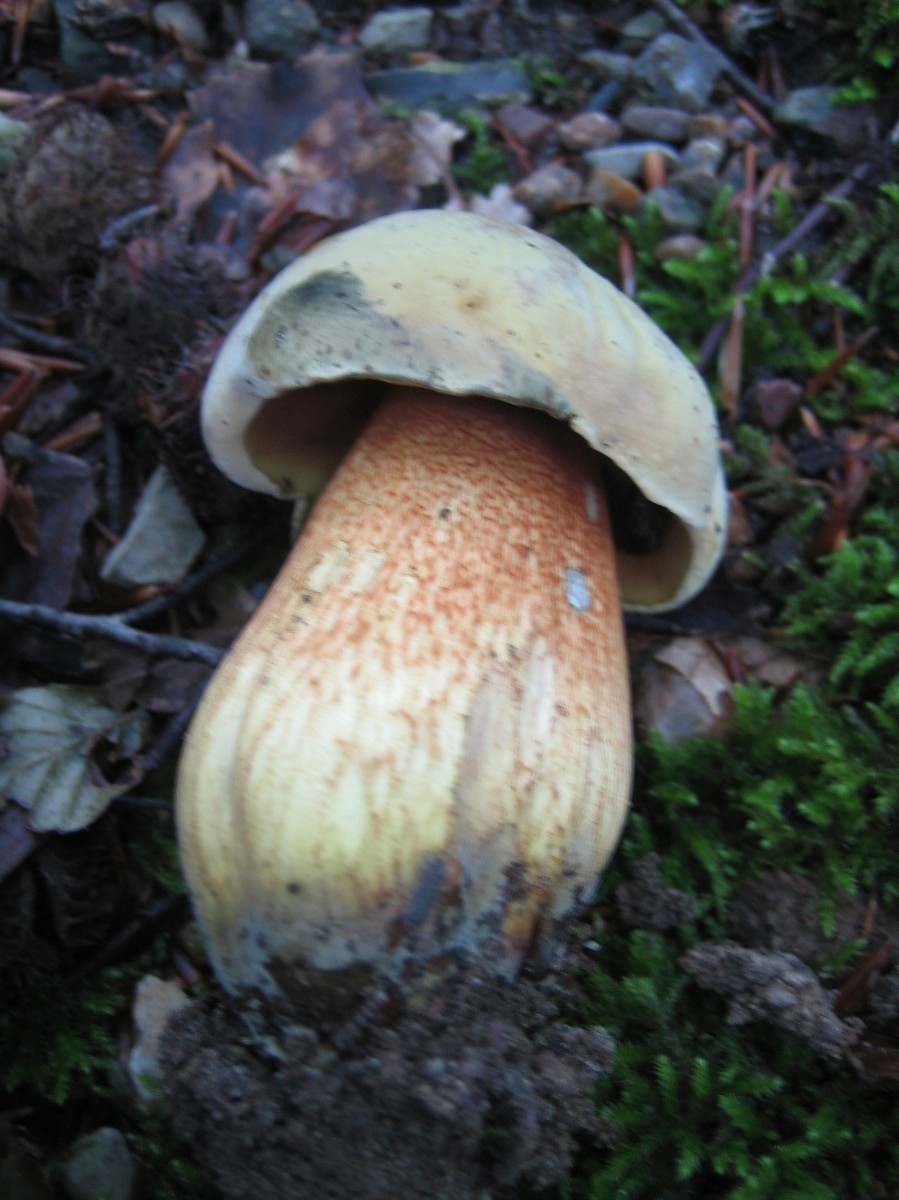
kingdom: Fungi
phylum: Basidiomycota
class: Agaricomycetes
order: Boletales
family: Boletaceae
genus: Suillellus
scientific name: Suillellus luridus
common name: netstokket indigorørhat
